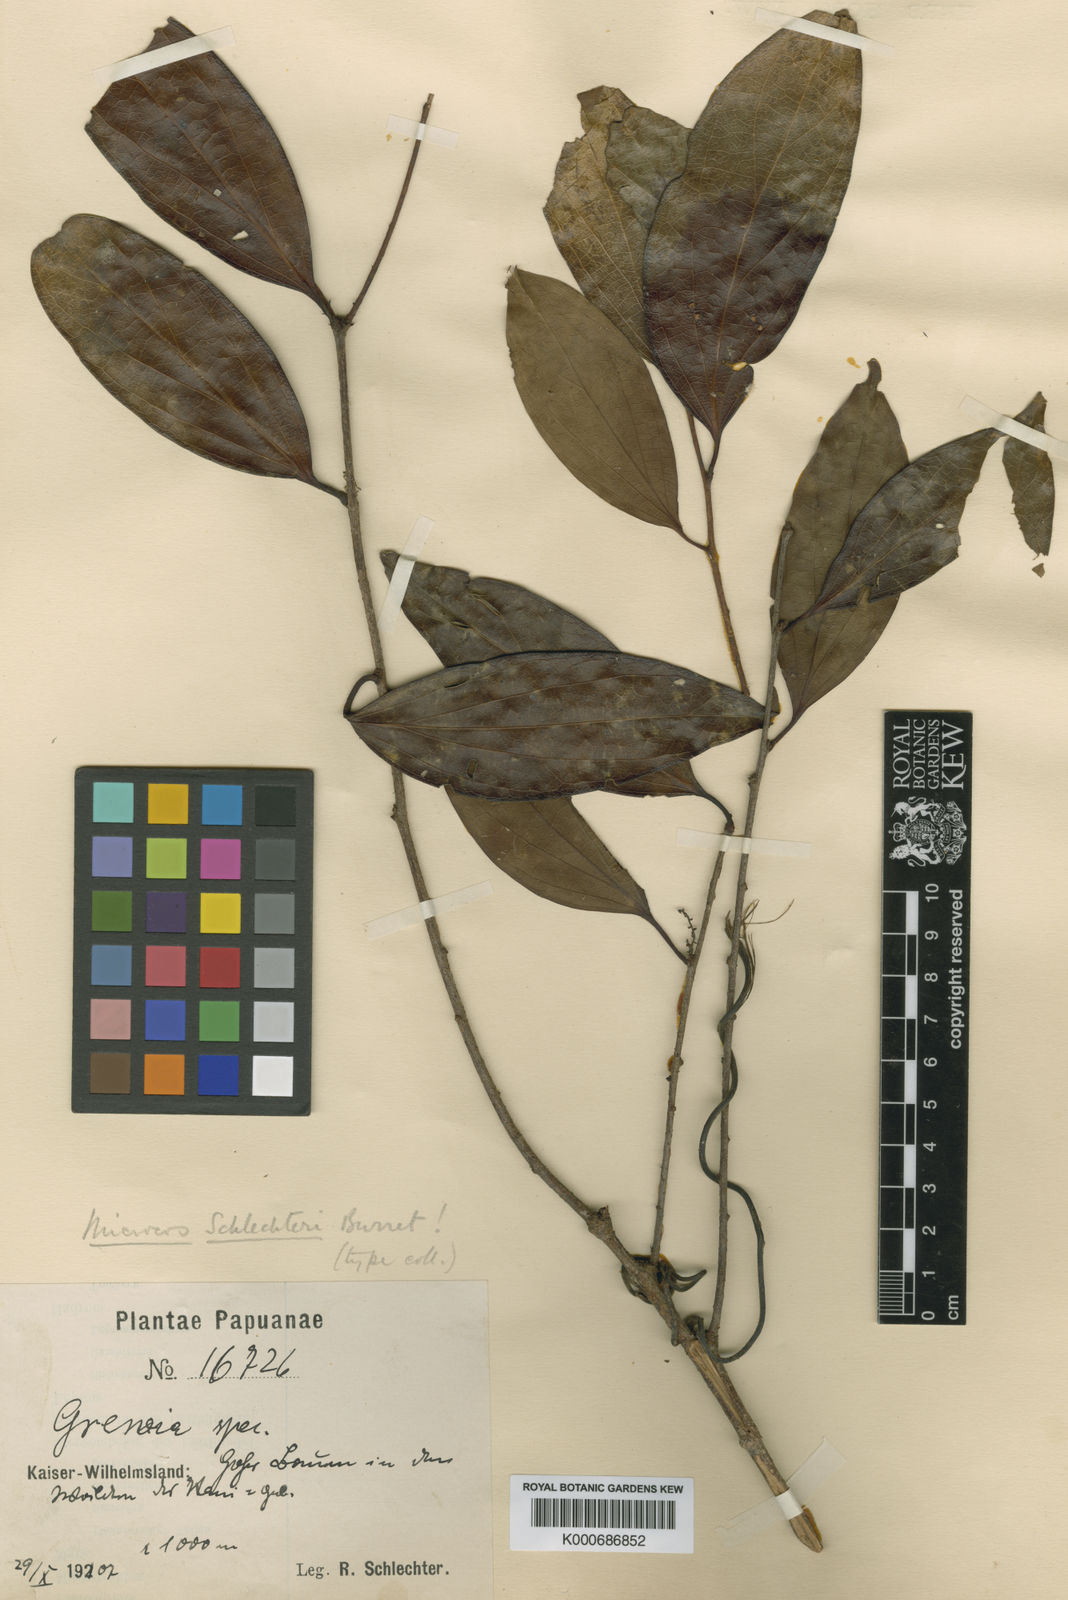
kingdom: Plantae
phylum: Tracheophyta
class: Magnoliopsida
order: Malvales
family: Malvaceae
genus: Microcos
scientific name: Microcos schlechteri
